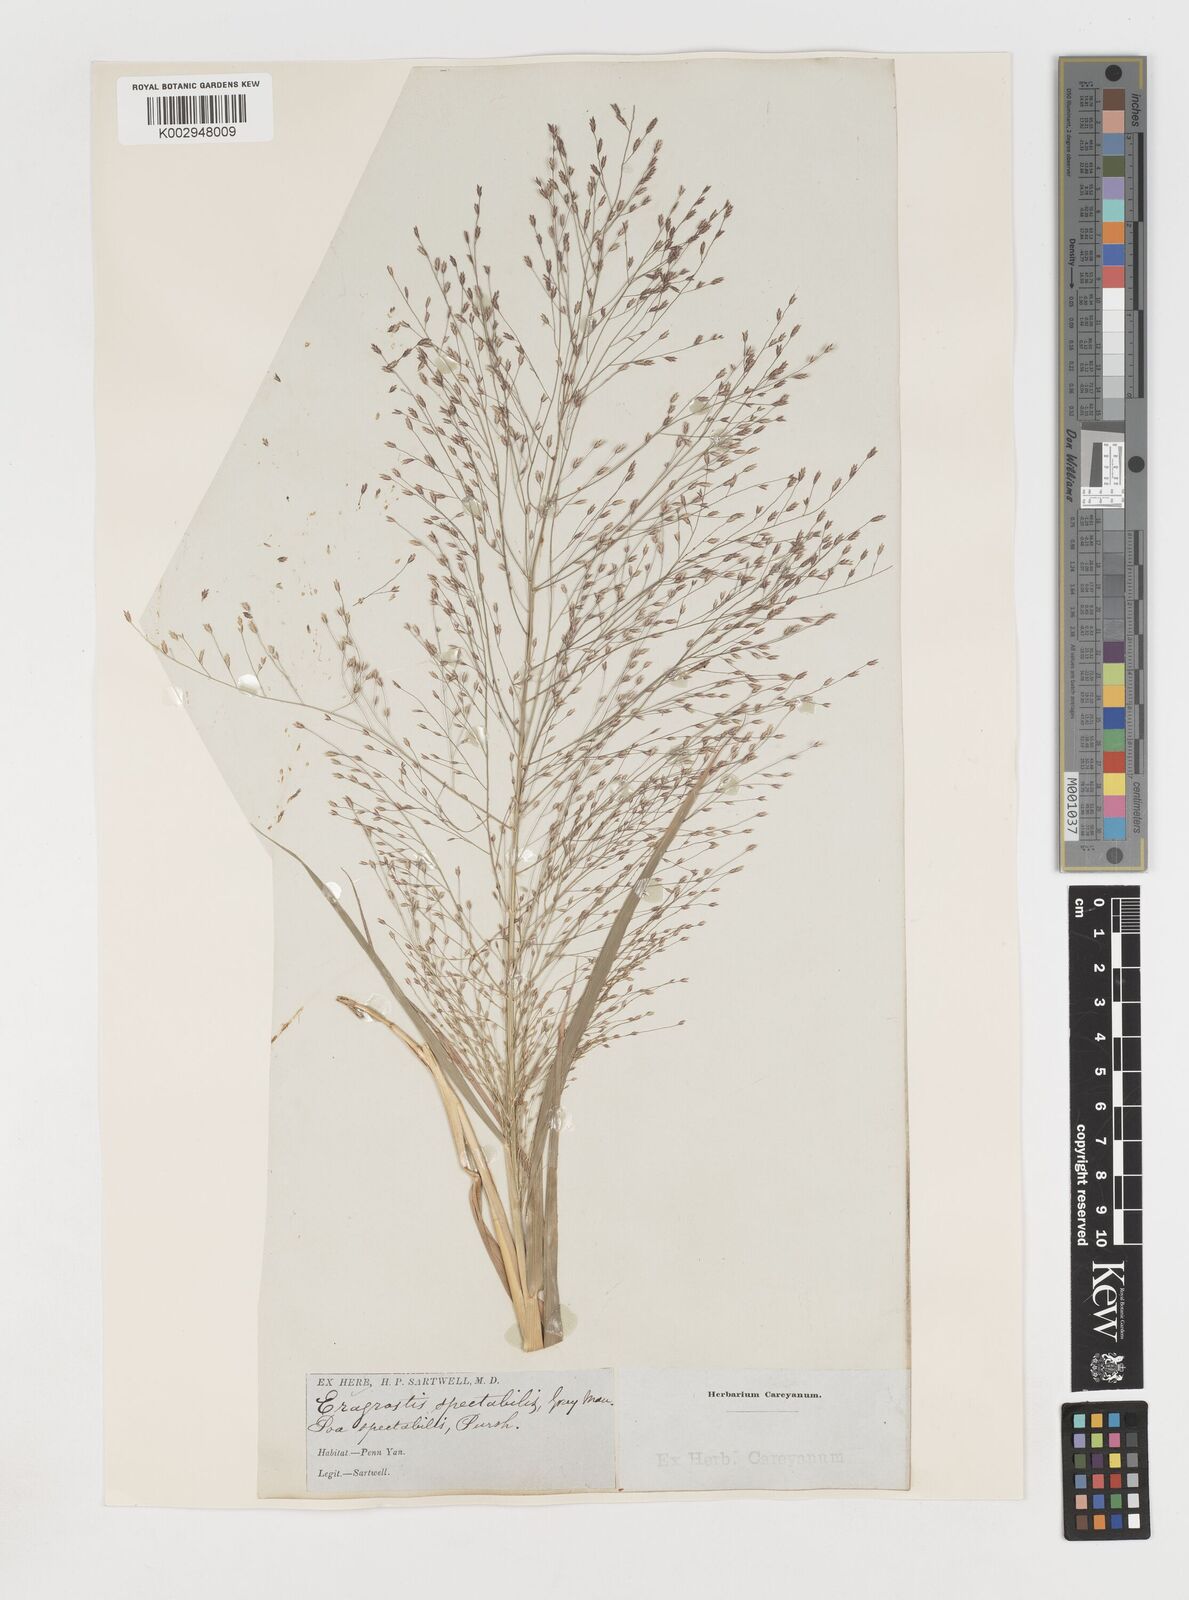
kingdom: Plantae
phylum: Tracheophyta
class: Liliopsida
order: Poales
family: Poaceae
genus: Eragrostis
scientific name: Eragrostis spectabilis
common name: Petticoat-climber
